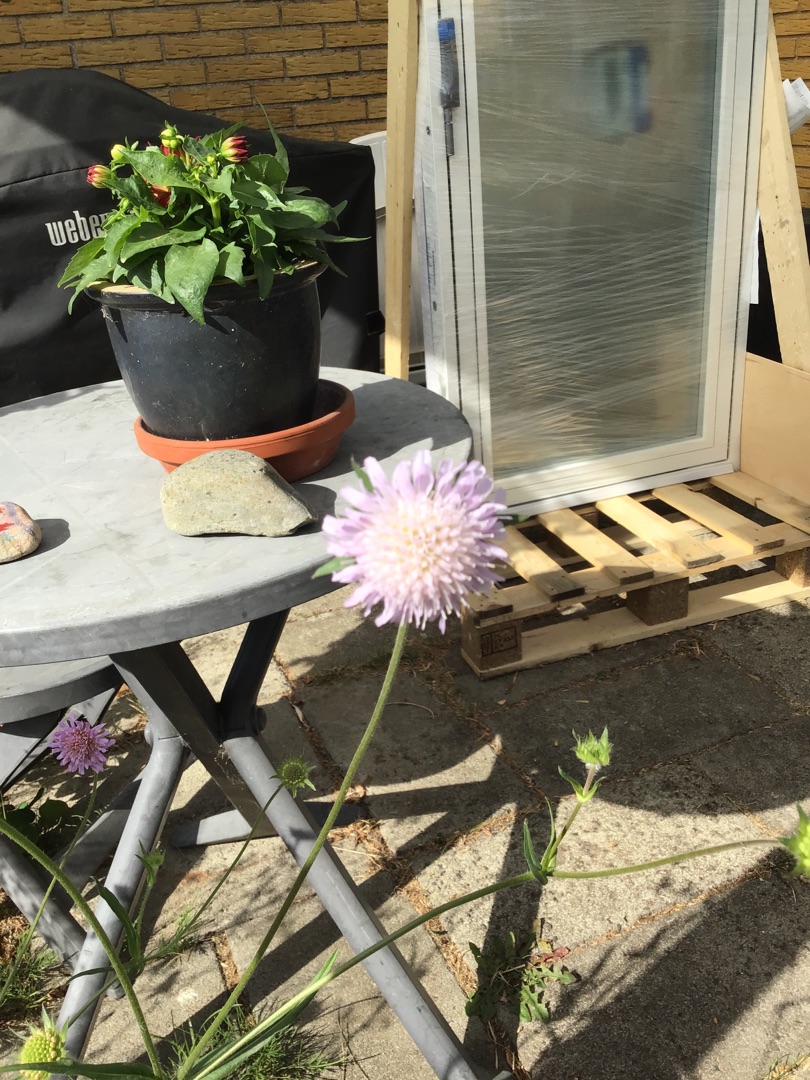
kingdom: Plantae
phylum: Tracheophyta
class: Magnoliopsida
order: Dipsacales
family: Caprifoliaceae
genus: Knautia
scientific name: Knautia arvensis
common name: Blåhat
